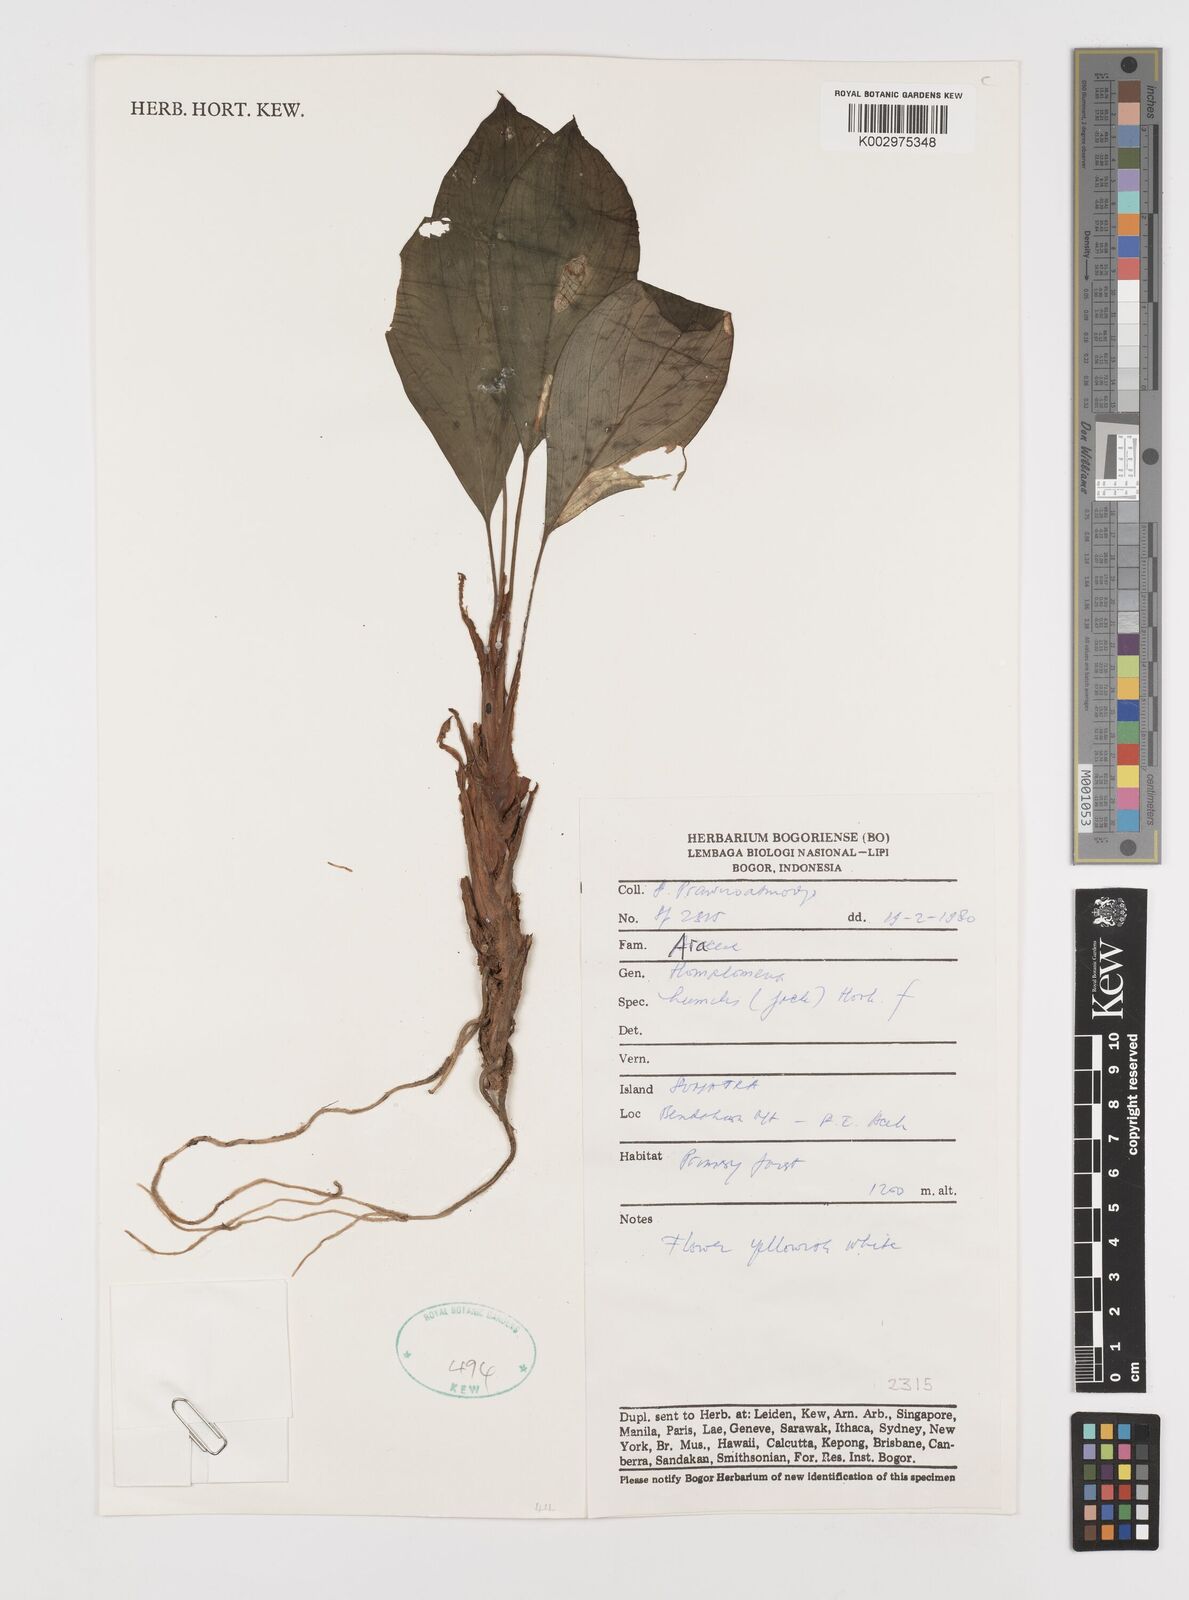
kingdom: Plantae
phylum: Tracheophyta
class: Liliopsida
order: Alismatales
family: Araceae
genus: Homalomena
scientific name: Homalomena humilis
